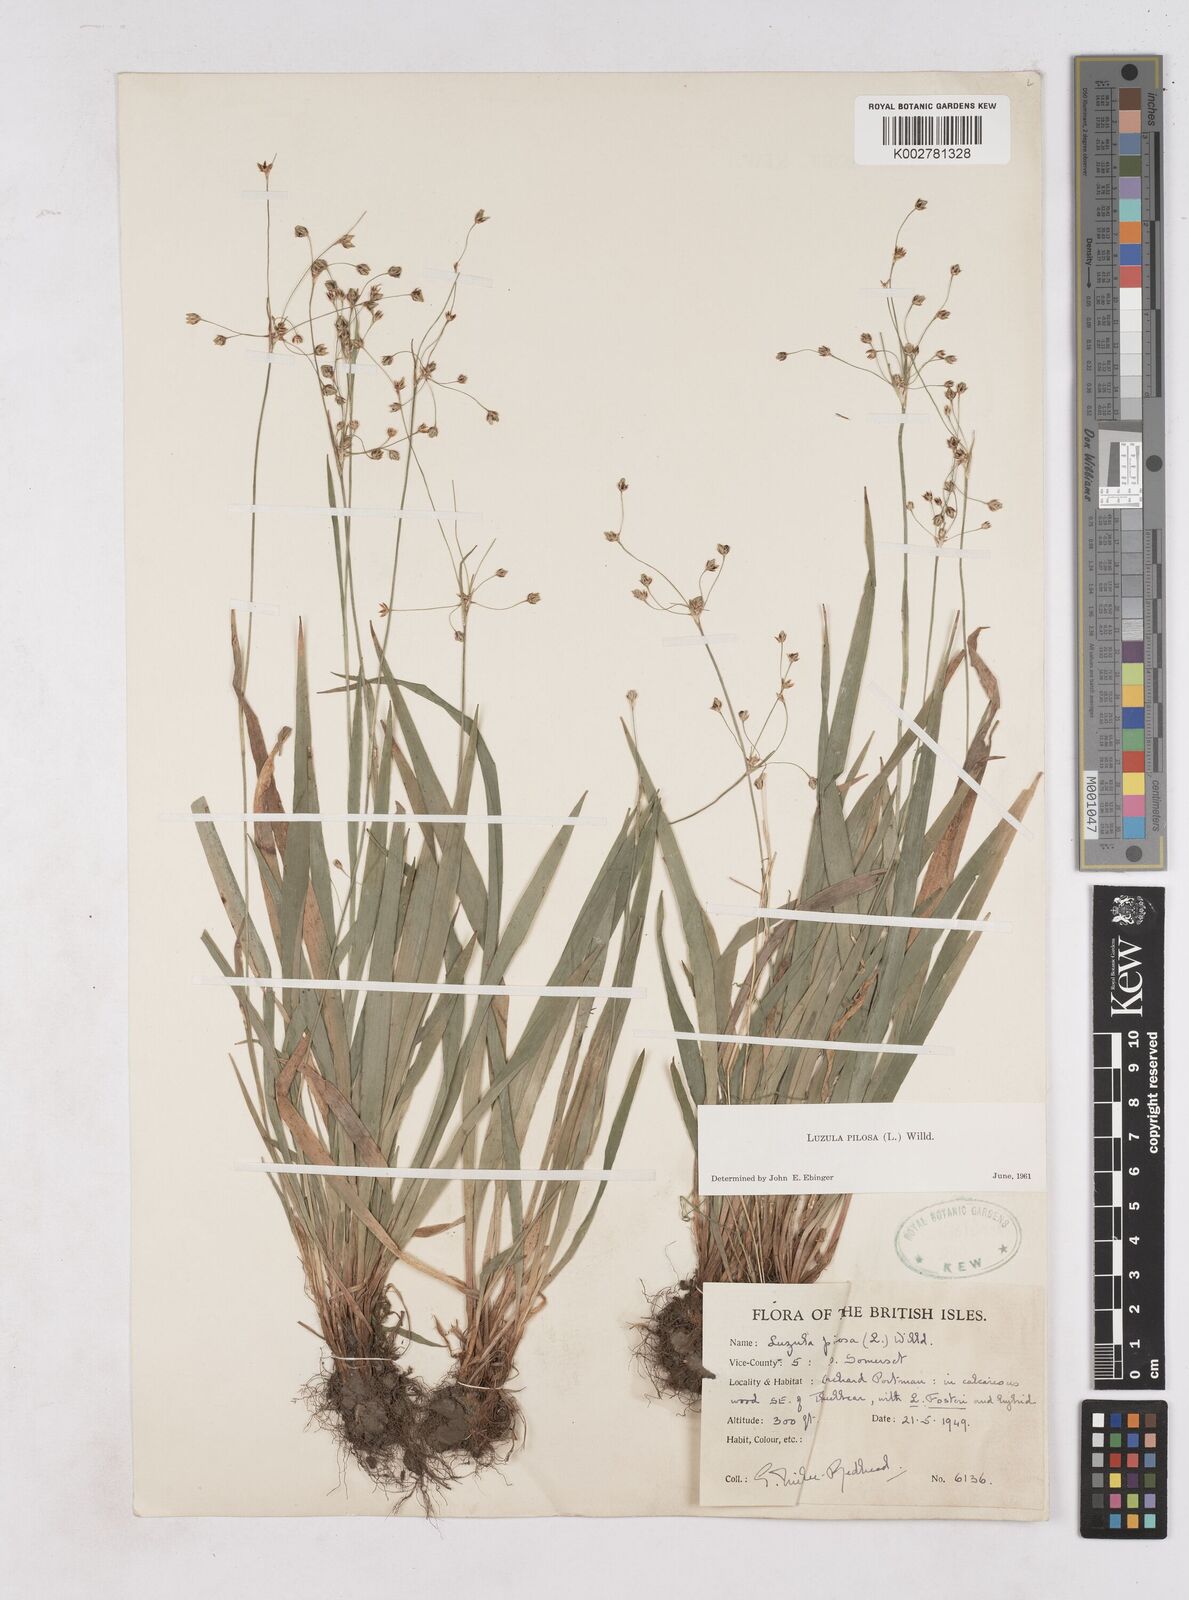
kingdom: Plantae
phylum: Tracheophyta
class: Liliopsida
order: Poales
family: Juncaceae
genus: Luzula
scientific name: Luzula pilosa
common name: Hairy wood-rush
